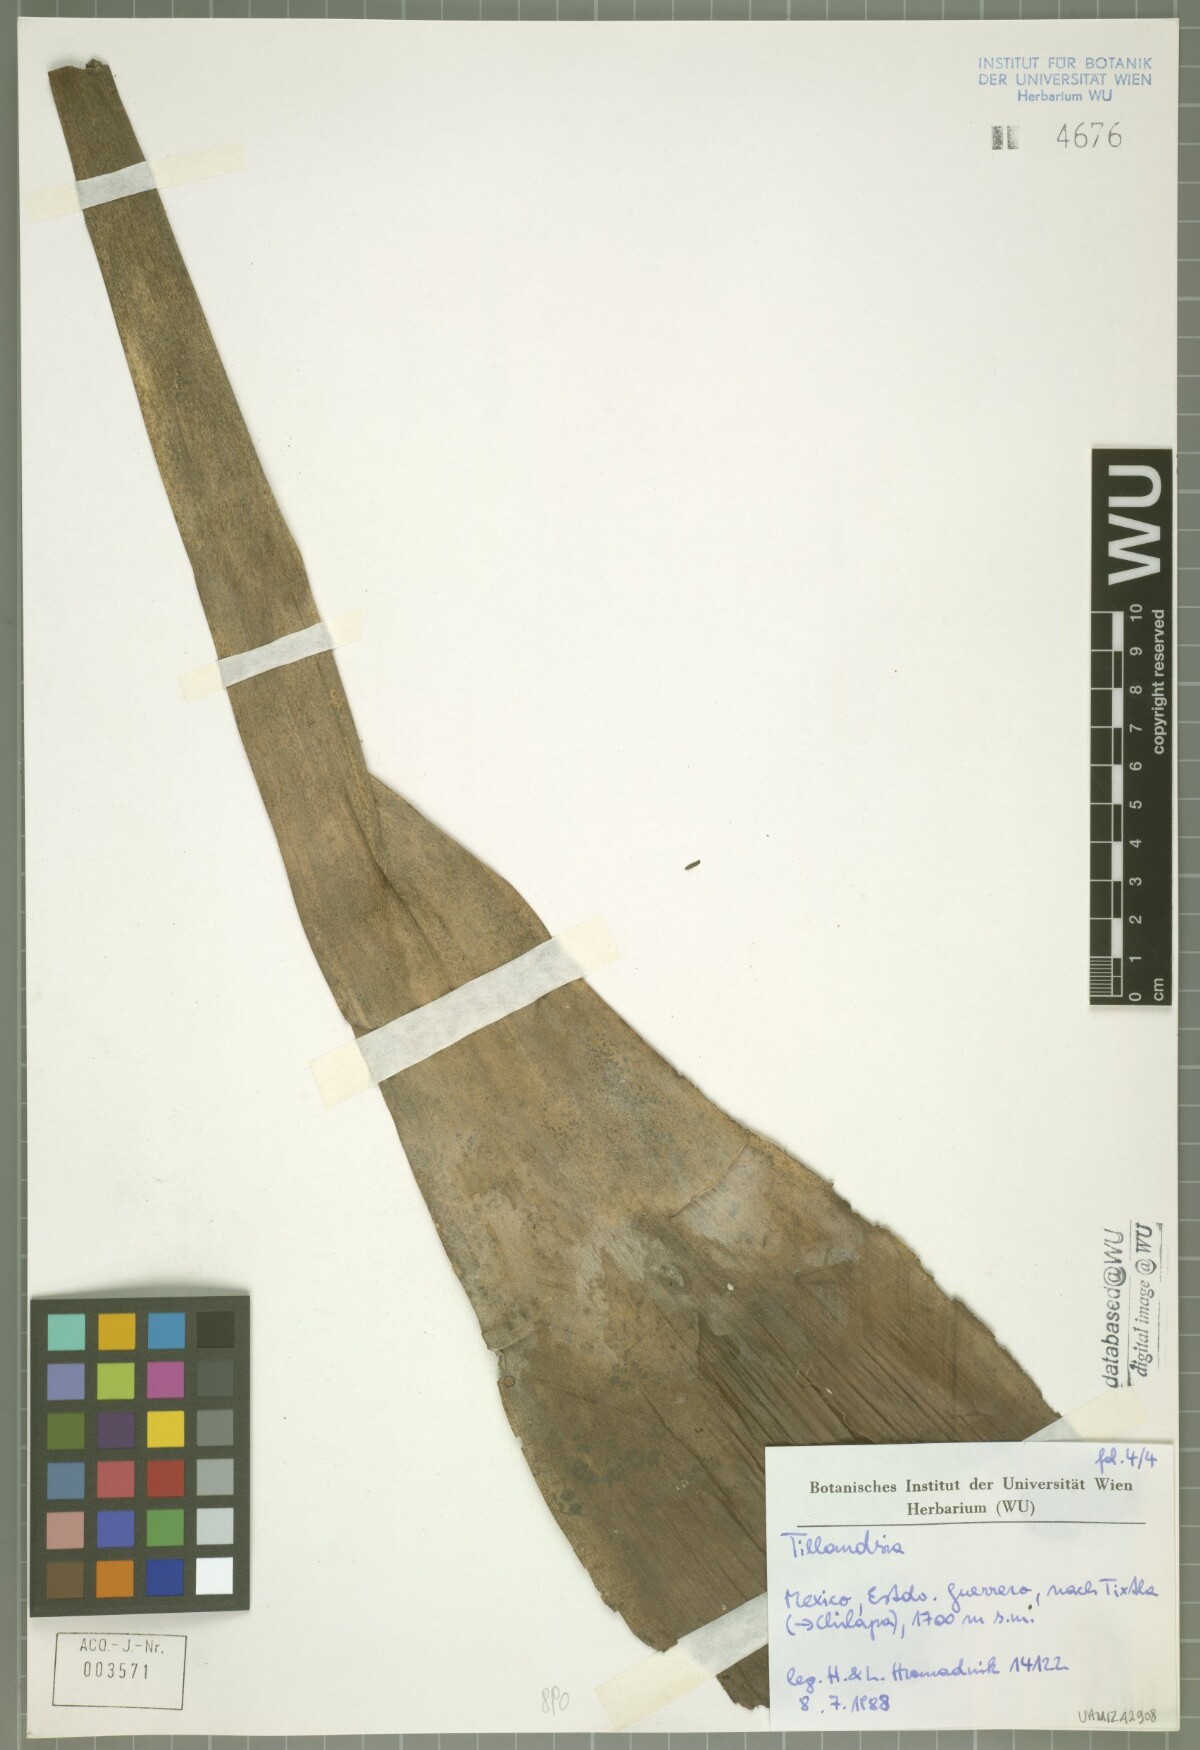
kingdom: Plantae
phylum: Tracheophyta
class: Liliopsida
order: Poales
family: Bromeliaceae
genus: Tillandsia
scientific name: Tillandsia mirabilis
